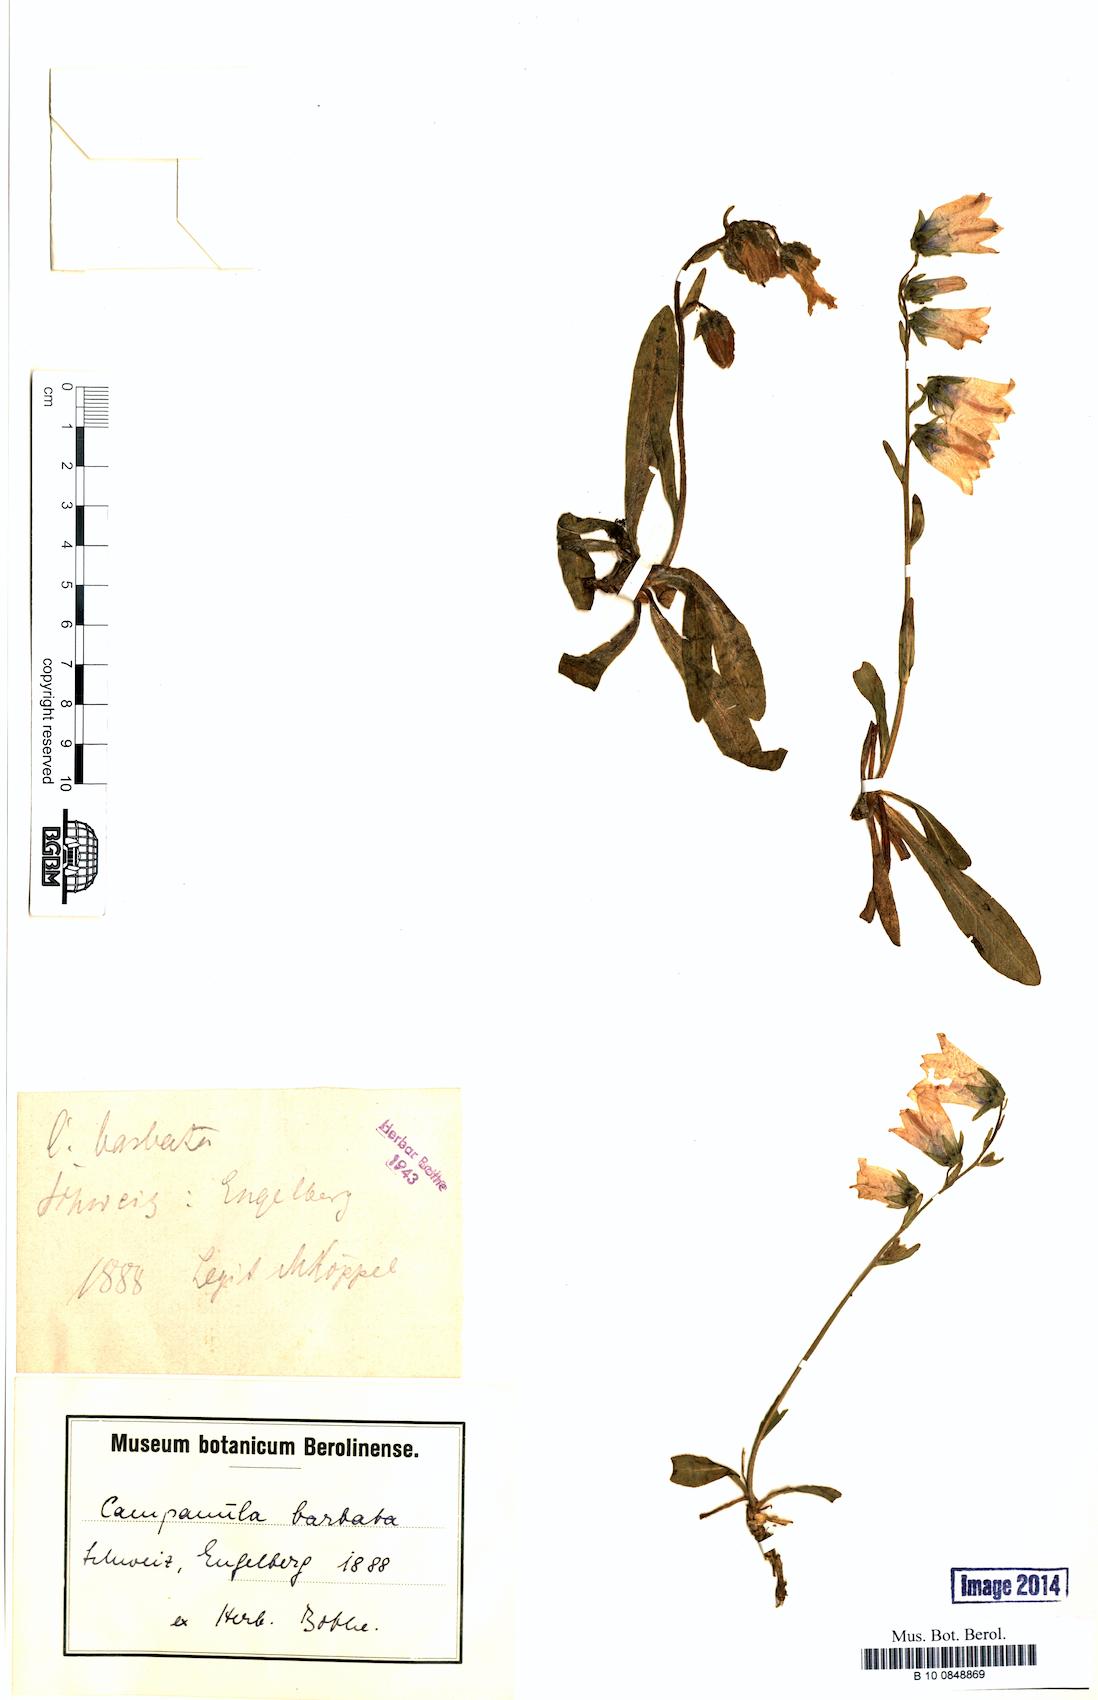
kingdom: Plantae
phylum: Tracheophyta
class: Magnoliopsida
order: Asterales
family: Campanulaceae
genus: Campanula
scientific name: Campanula barbata
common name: Bearded bellflower
